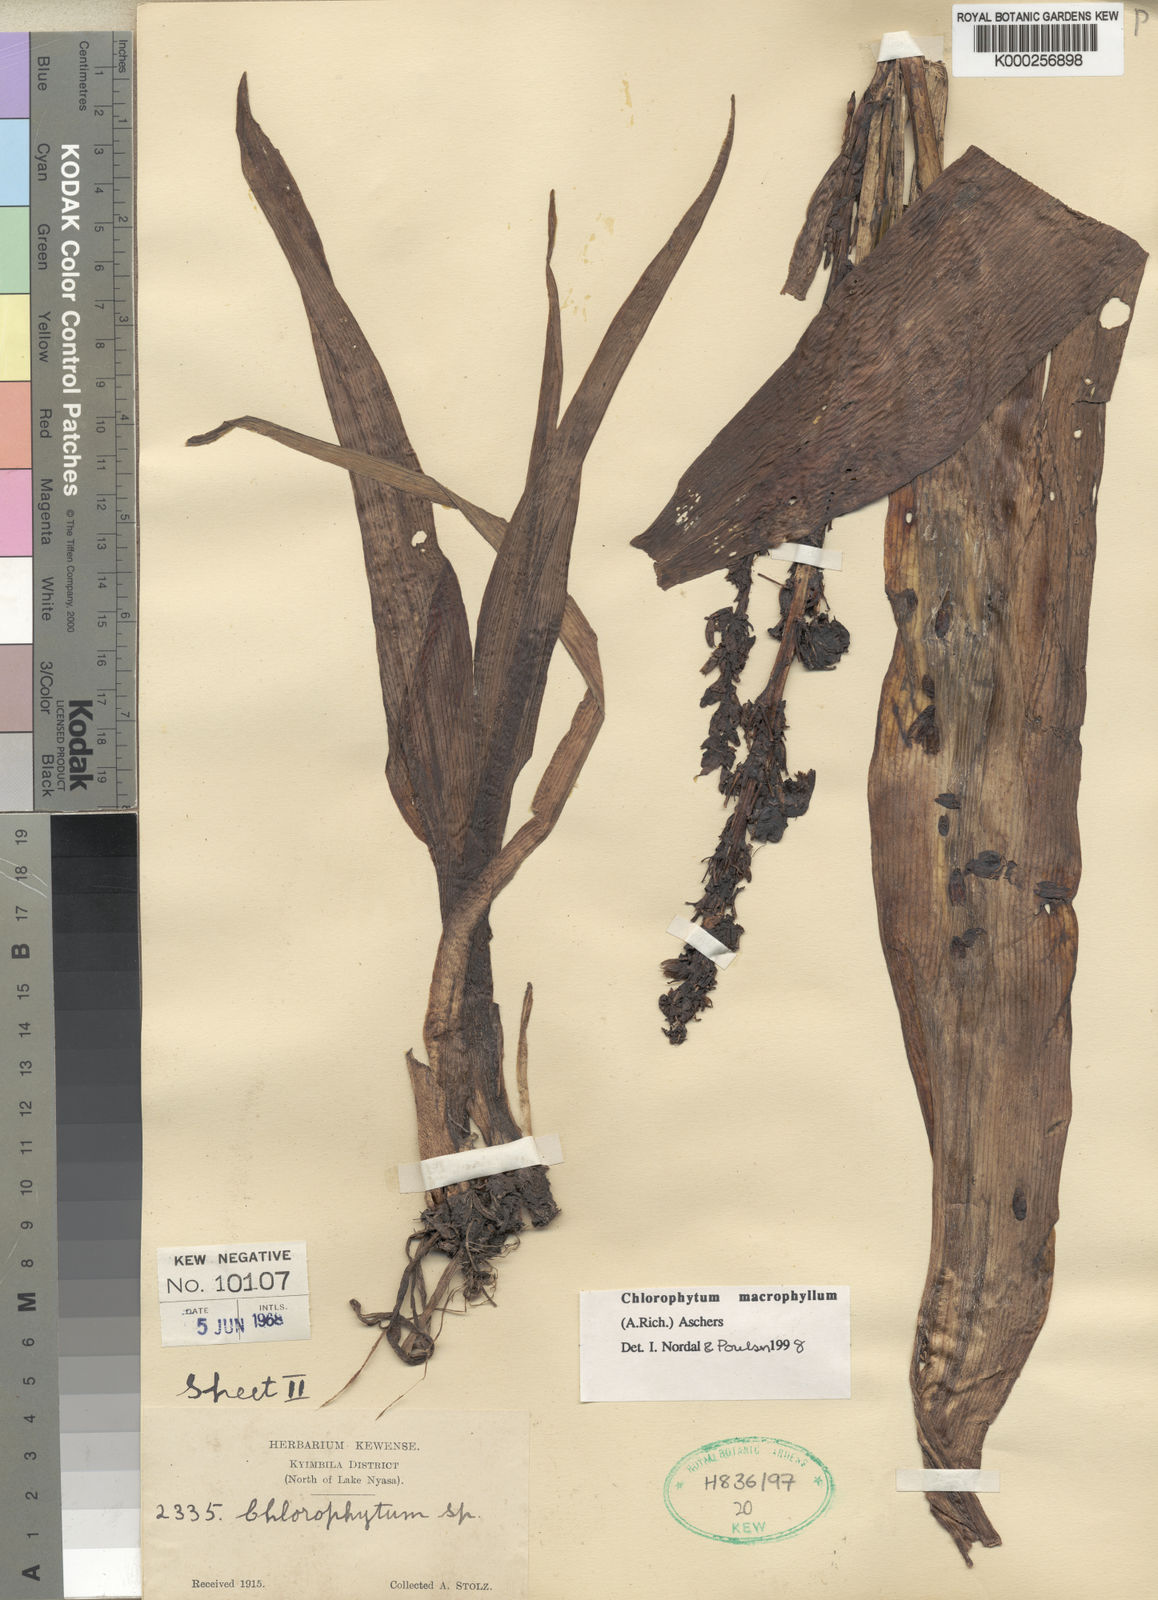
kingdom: Plantae
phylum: Tracheophyta
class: Liliopsida
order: Asparagales
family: Asparagaceae
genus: Chlorophytum
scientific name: Chlorophytum macrophyllum
